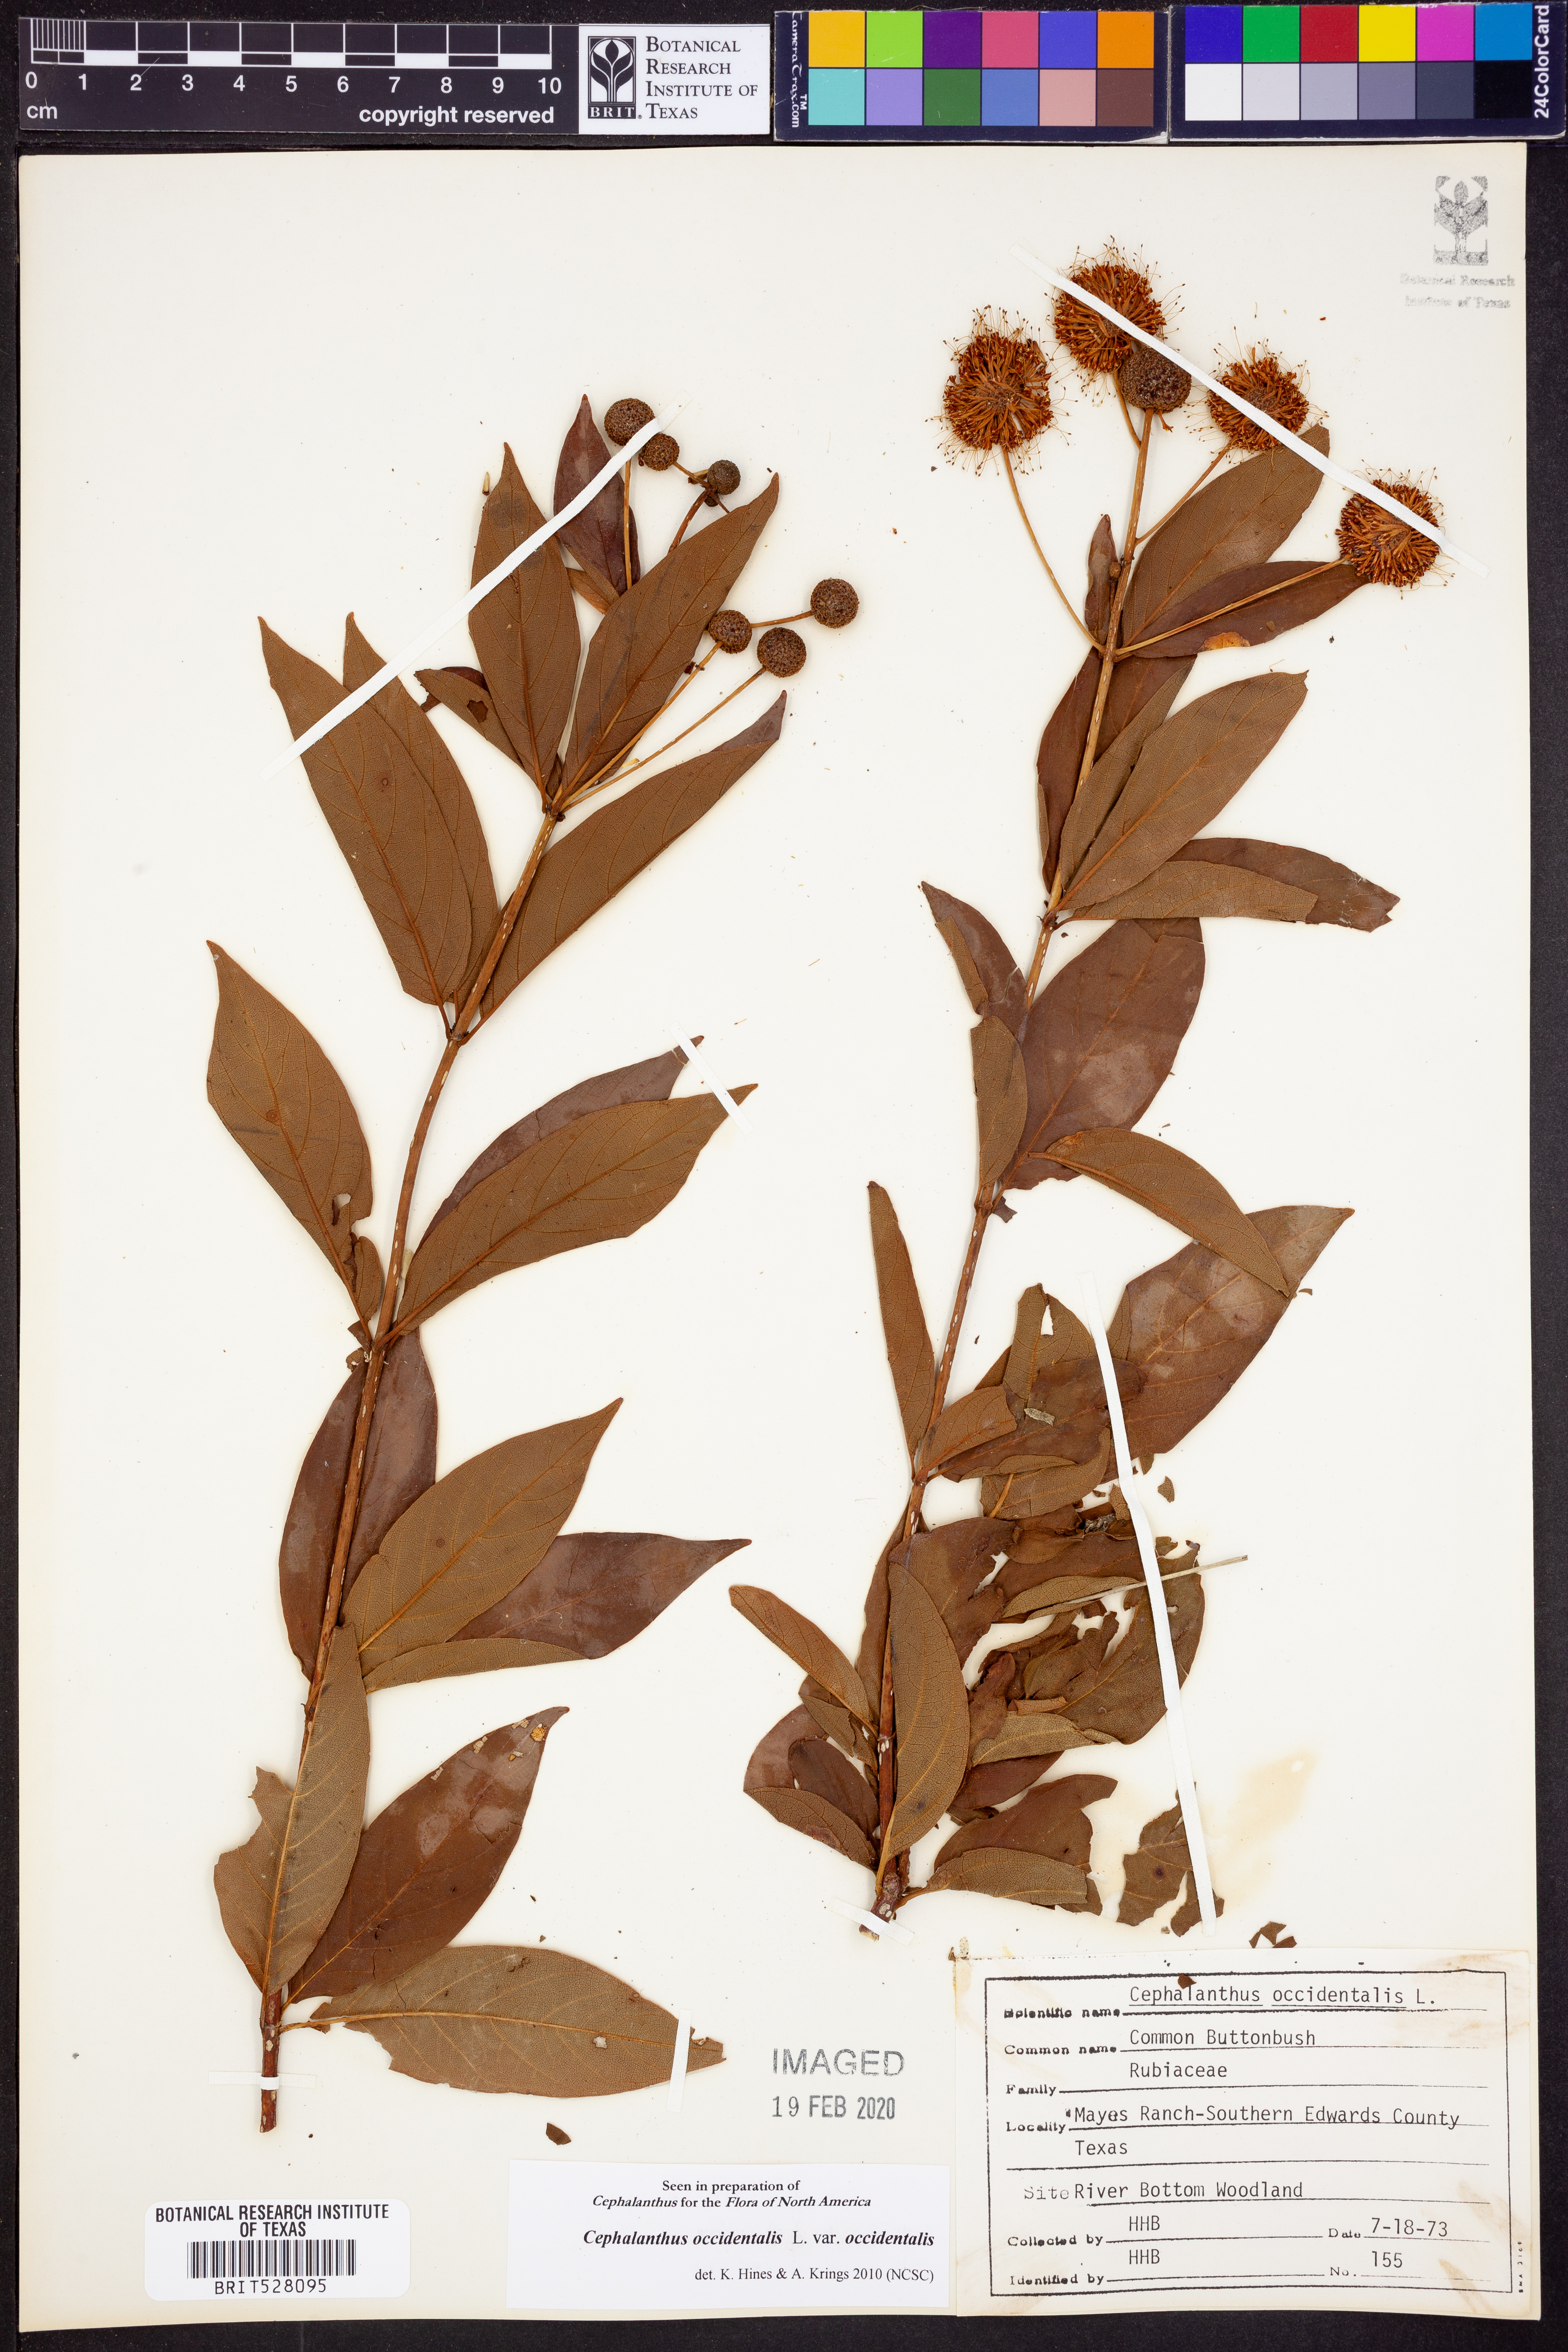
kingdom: Plantae
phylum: Tracheophyta
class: Magnoliopsida
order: Gentianales
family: Rubiaceae
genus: Cephalanthus
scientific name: Cephalanthus occidentalis
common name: Button-willow
